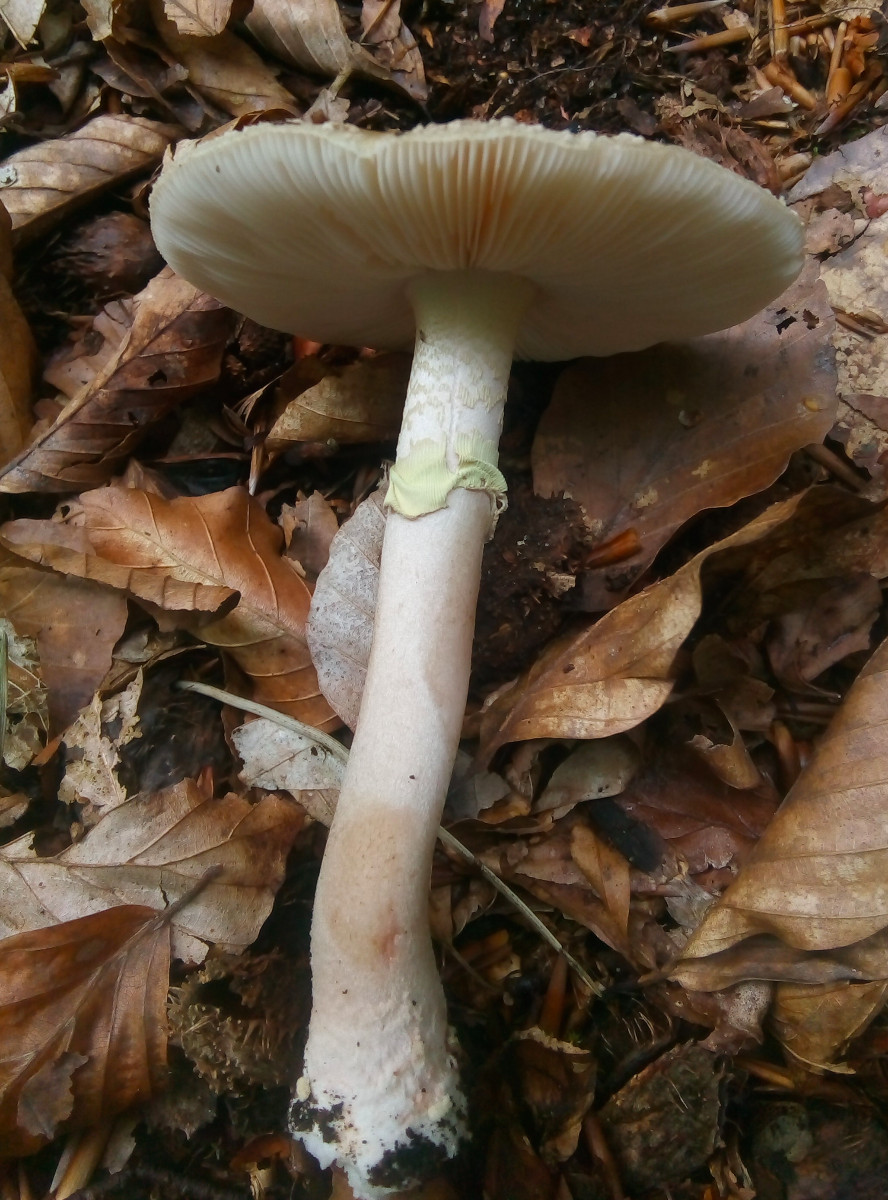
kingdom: Fungi
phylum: Basidiomycota
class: Agaricomycetes
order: Agaricales
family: Amanitaceae
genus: Amanita
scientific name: Amanita rubescens
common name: Blusher
